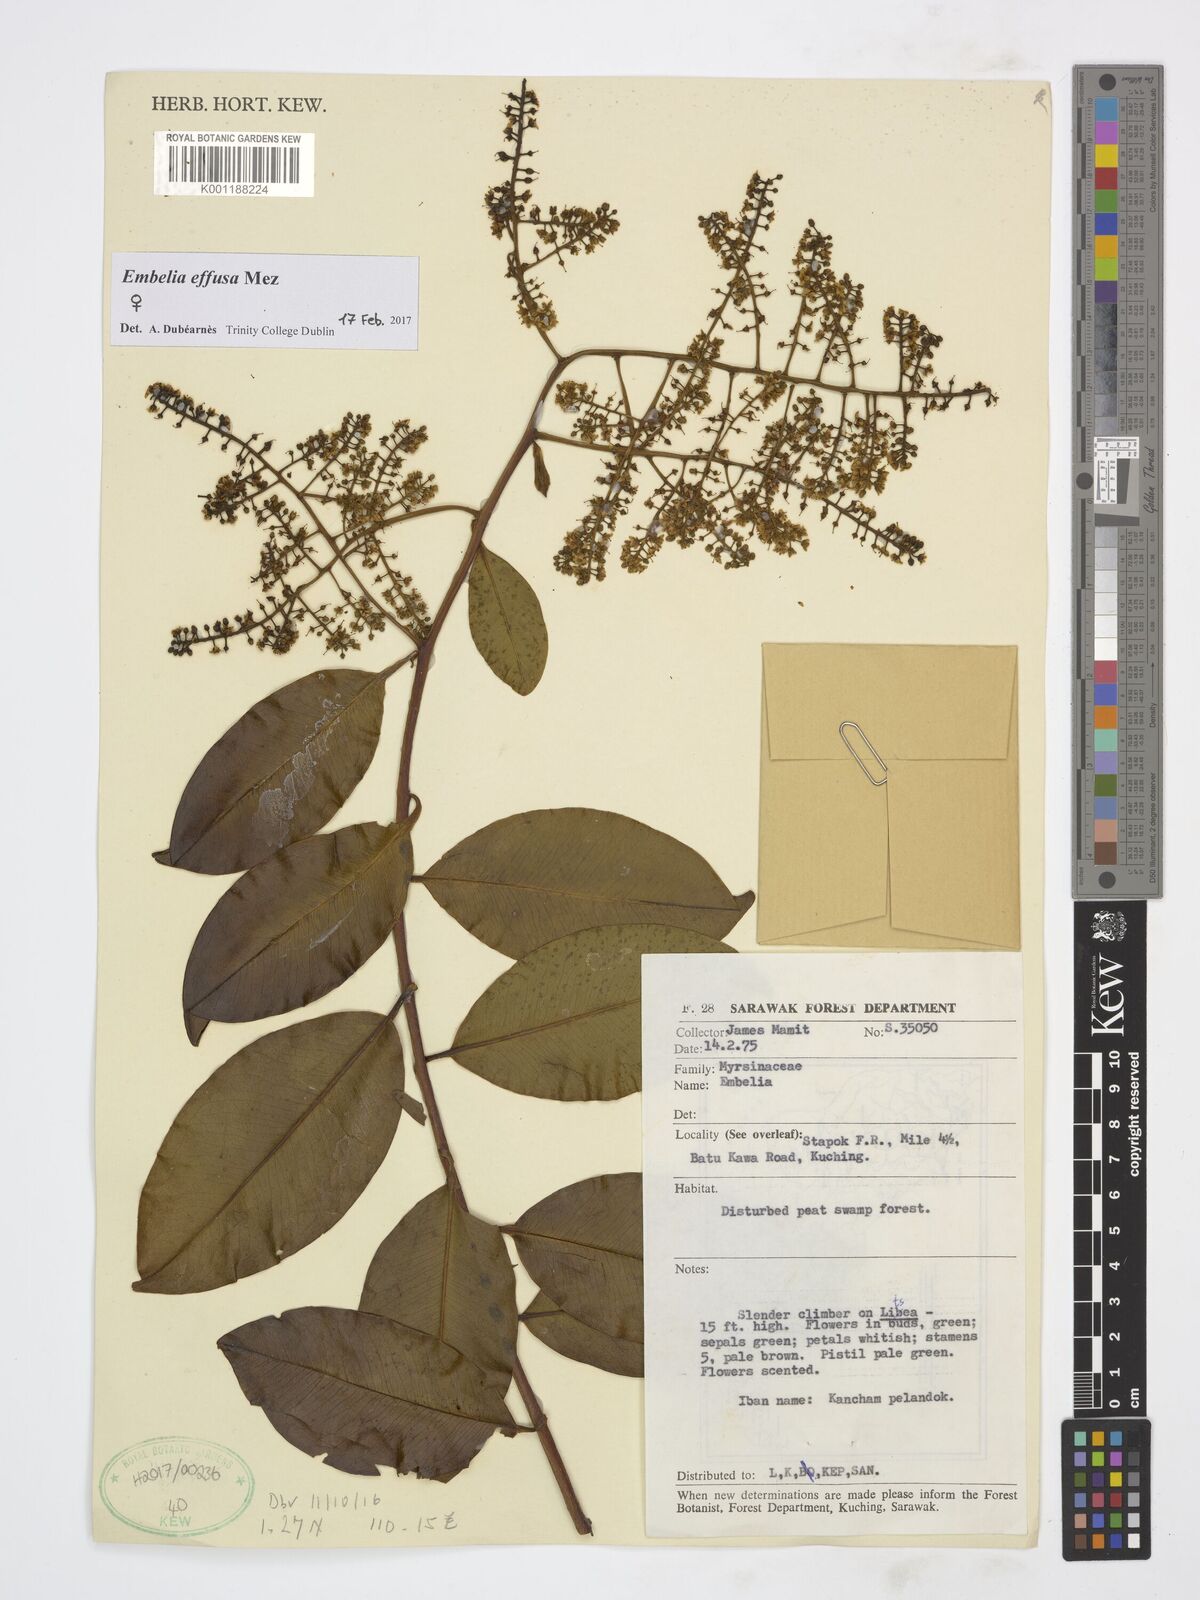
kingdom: Plantae
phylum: Tracheophyta
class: Magnoliopsida
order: Ericales
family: Primulaceae
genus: Embelia
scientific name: Embelia effusa
